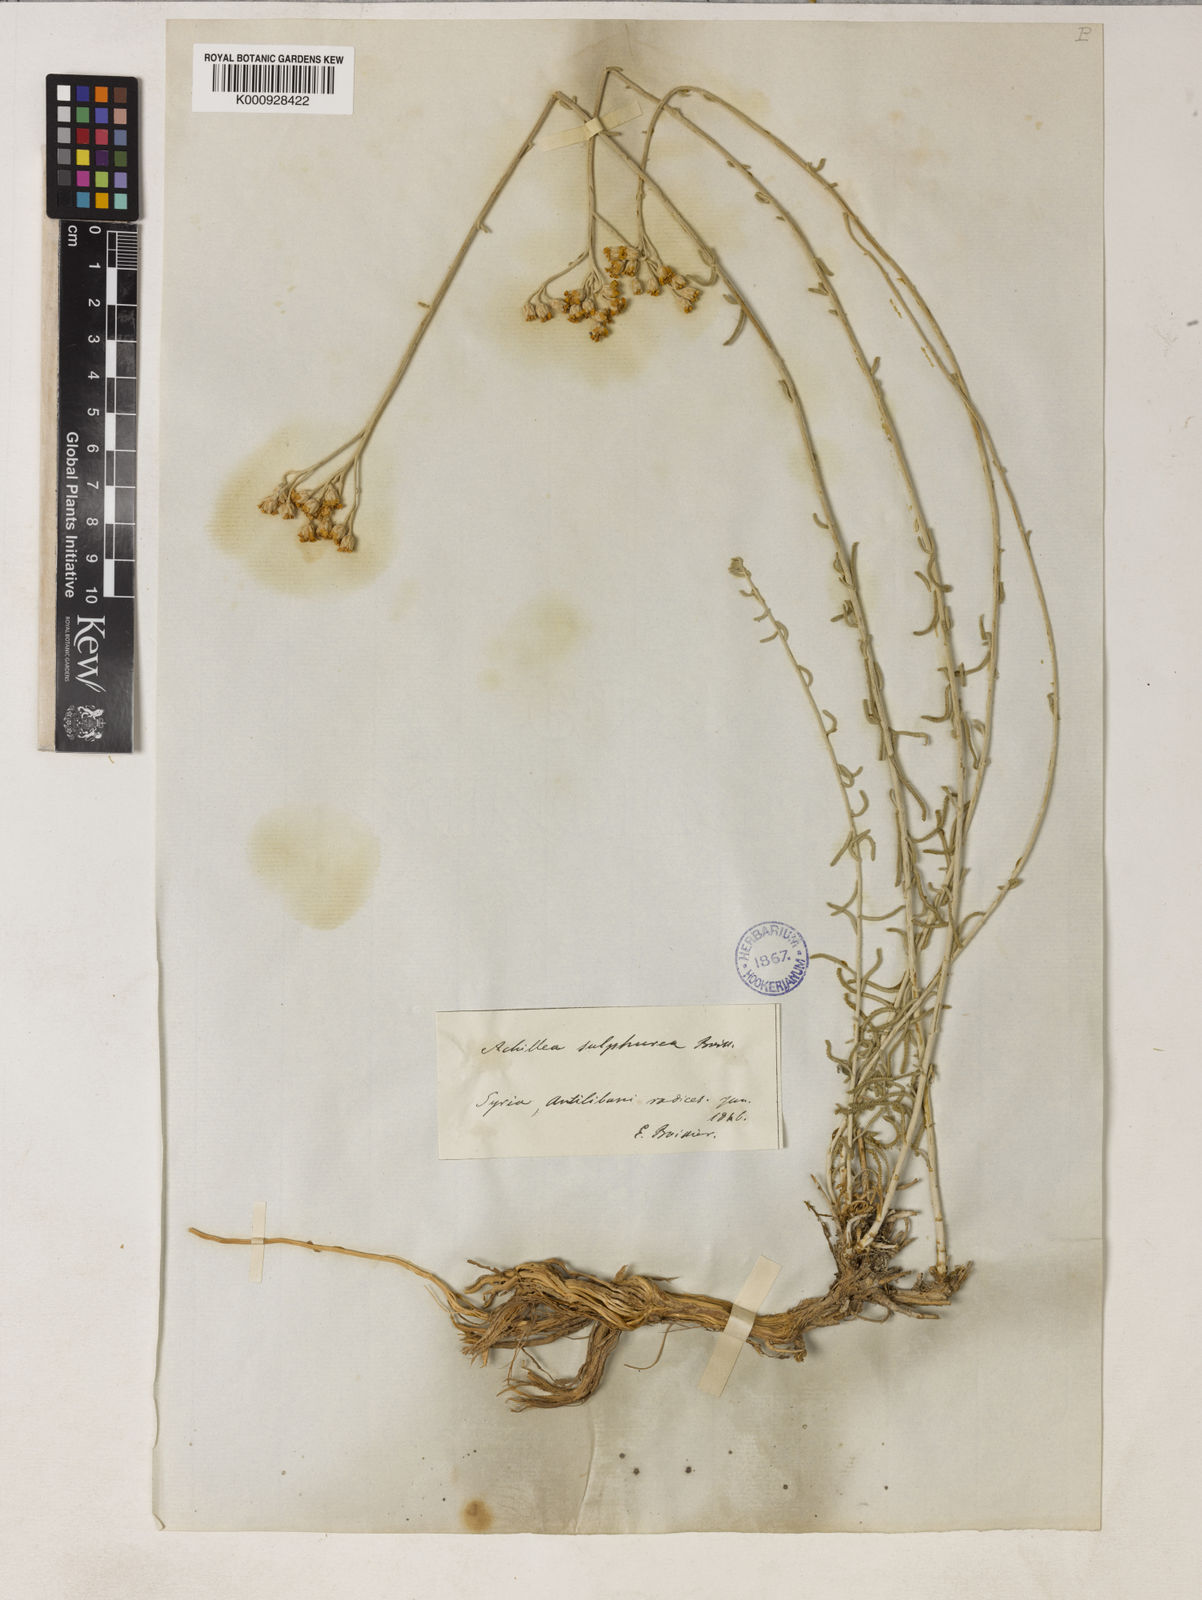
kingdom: Plantae
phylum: Tracheophyta
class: Magnoliopsida
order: Asterales
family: Asteraceae
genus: Achillea
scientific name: Achillea falcata
